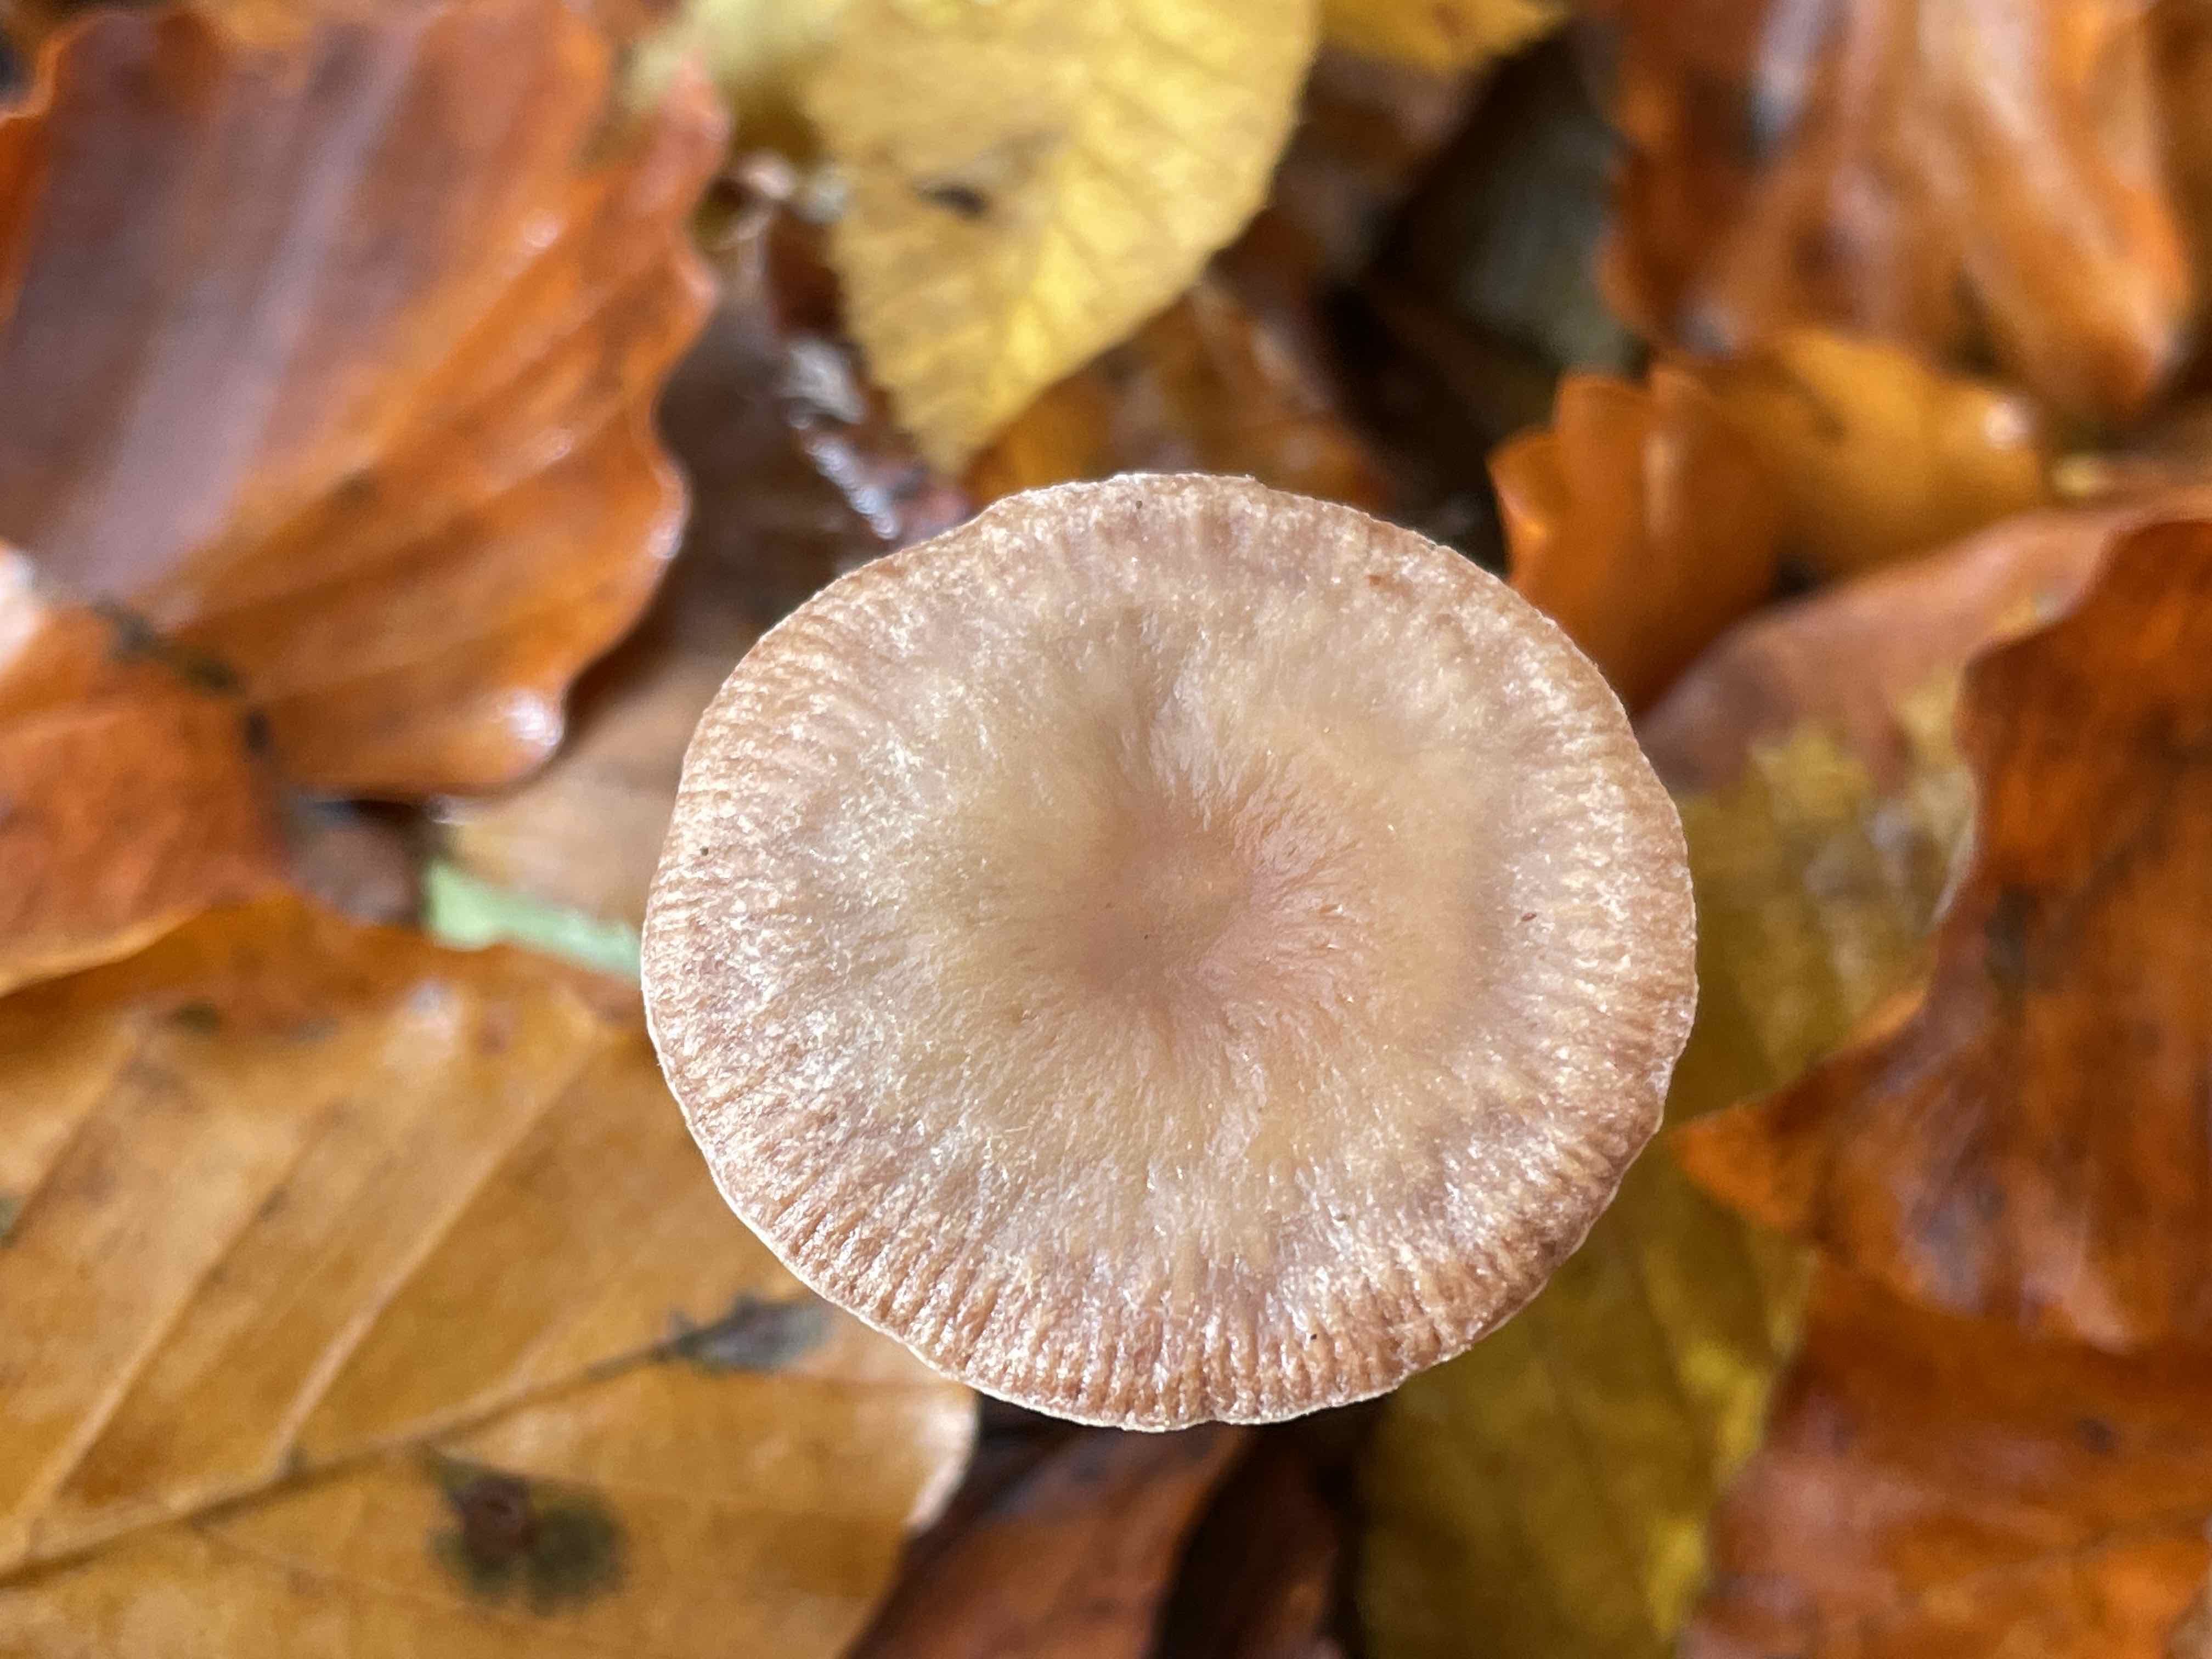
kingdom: Fungi
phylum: Basidiomycota
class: Agaricomycetes
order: Agaricales
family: Omphalotaceae
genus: Gymnopus
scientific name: Gymnopus
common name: fladhat
